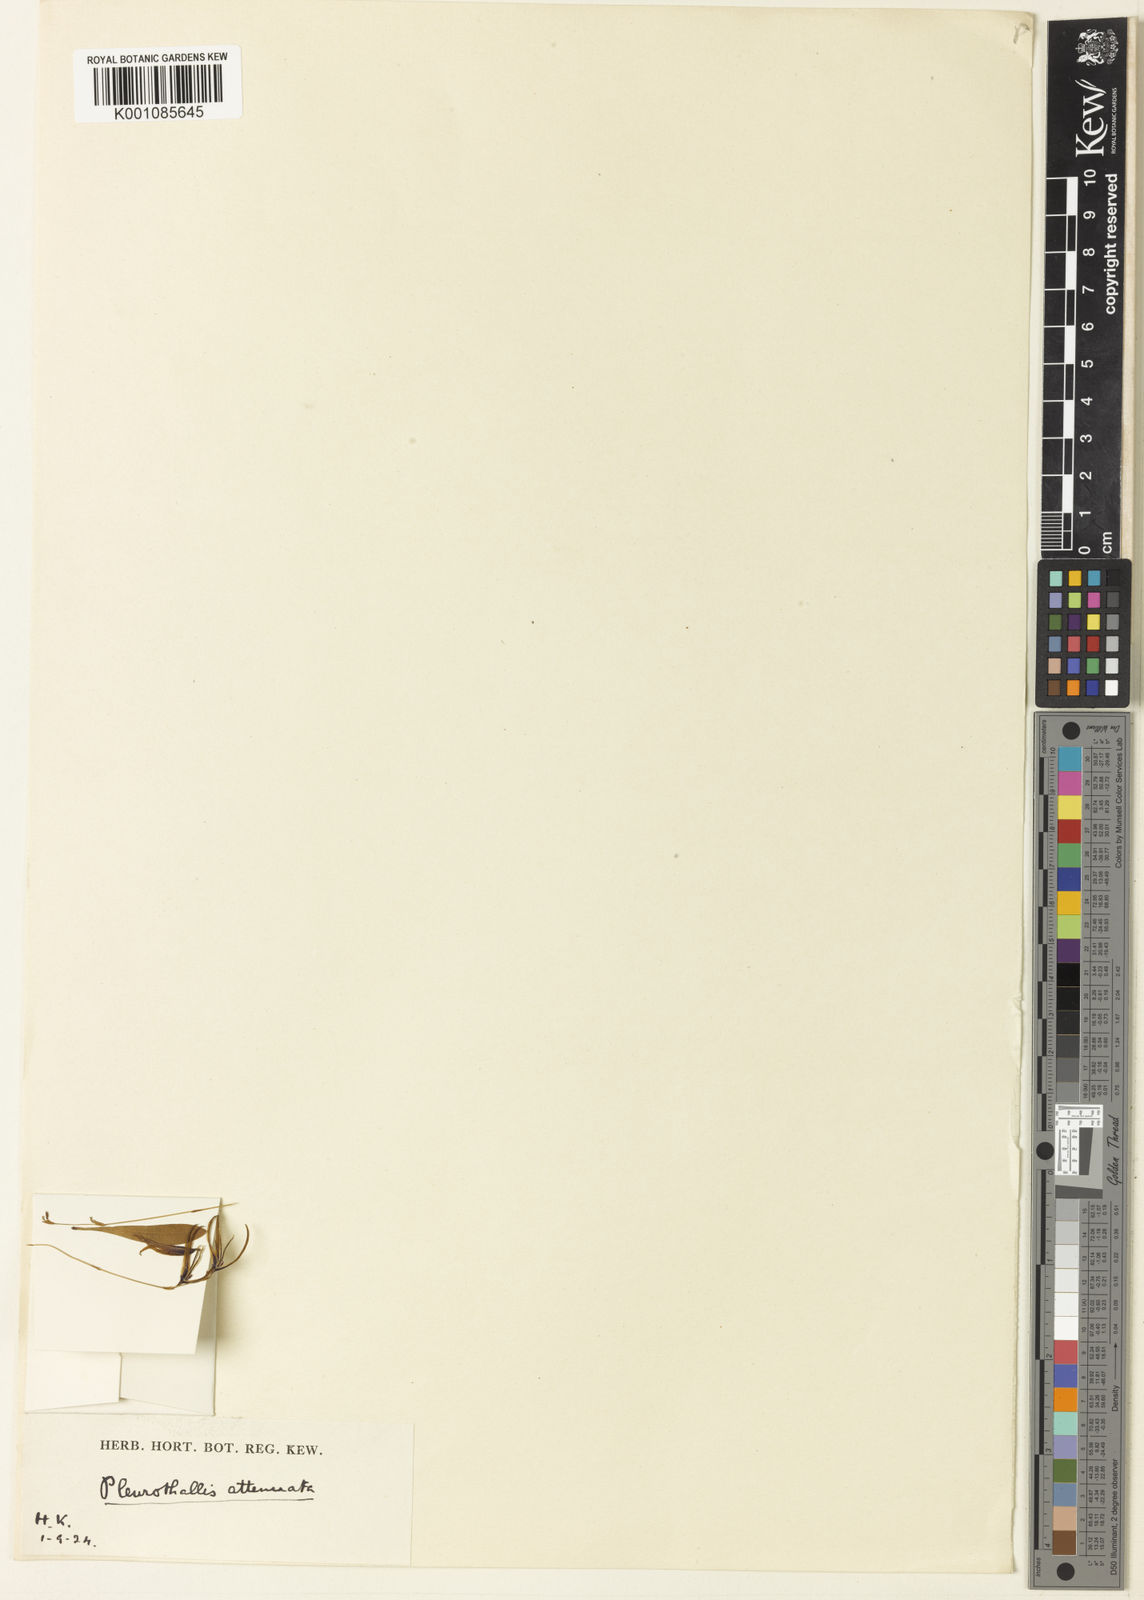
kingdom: Plantae
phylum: Tracheophyta
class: Liliopsida
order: Asparagales
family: Orchidaceae
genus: Anathallis
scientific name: Anathallis attenuata
